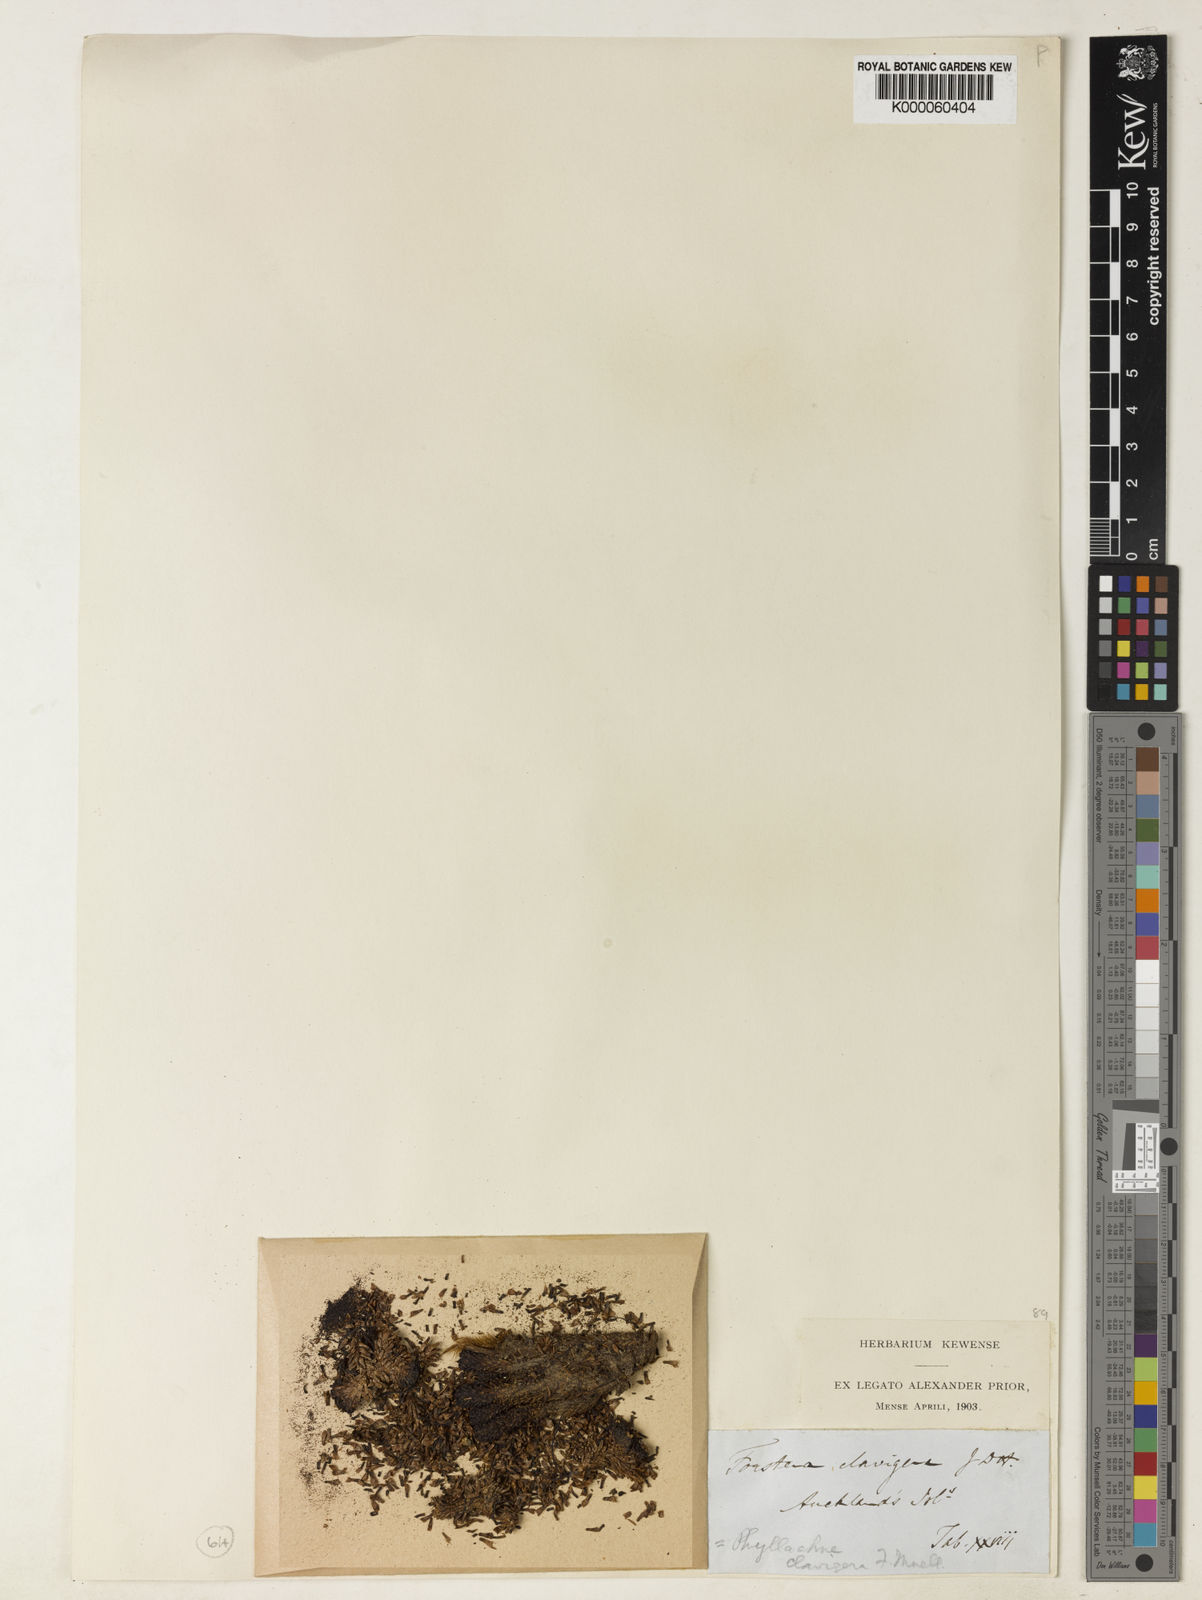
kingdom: Plantae
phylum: Tracheophyta
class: Magnoliopsida
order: Asterales
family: Stylidiaceae
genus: Phyllachne
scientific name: Phyllachne clavigera
